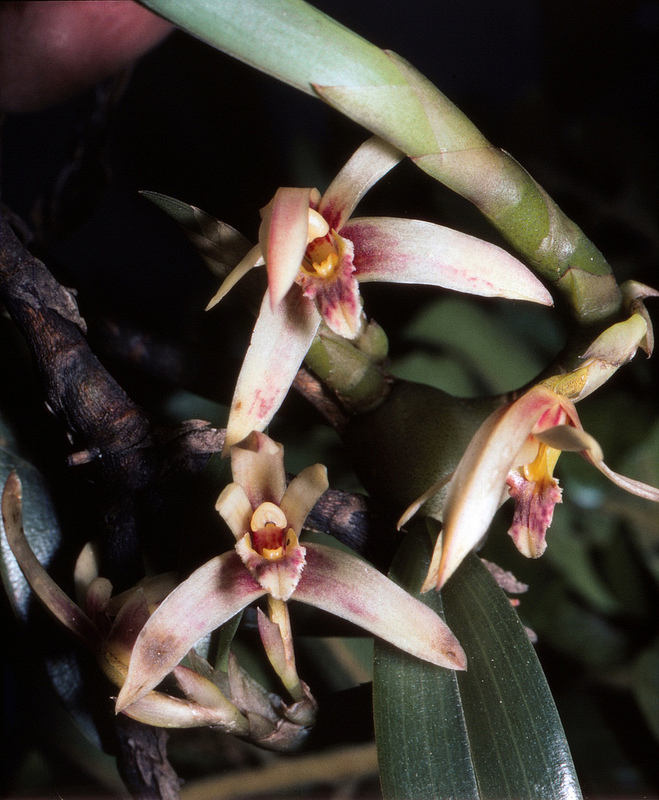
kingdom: Plantae
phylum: Tracheophyta
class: Liliopsida
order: Asparagales
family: Orchidaceae
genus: Maxillaria
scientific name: Maxillaria alpestris
